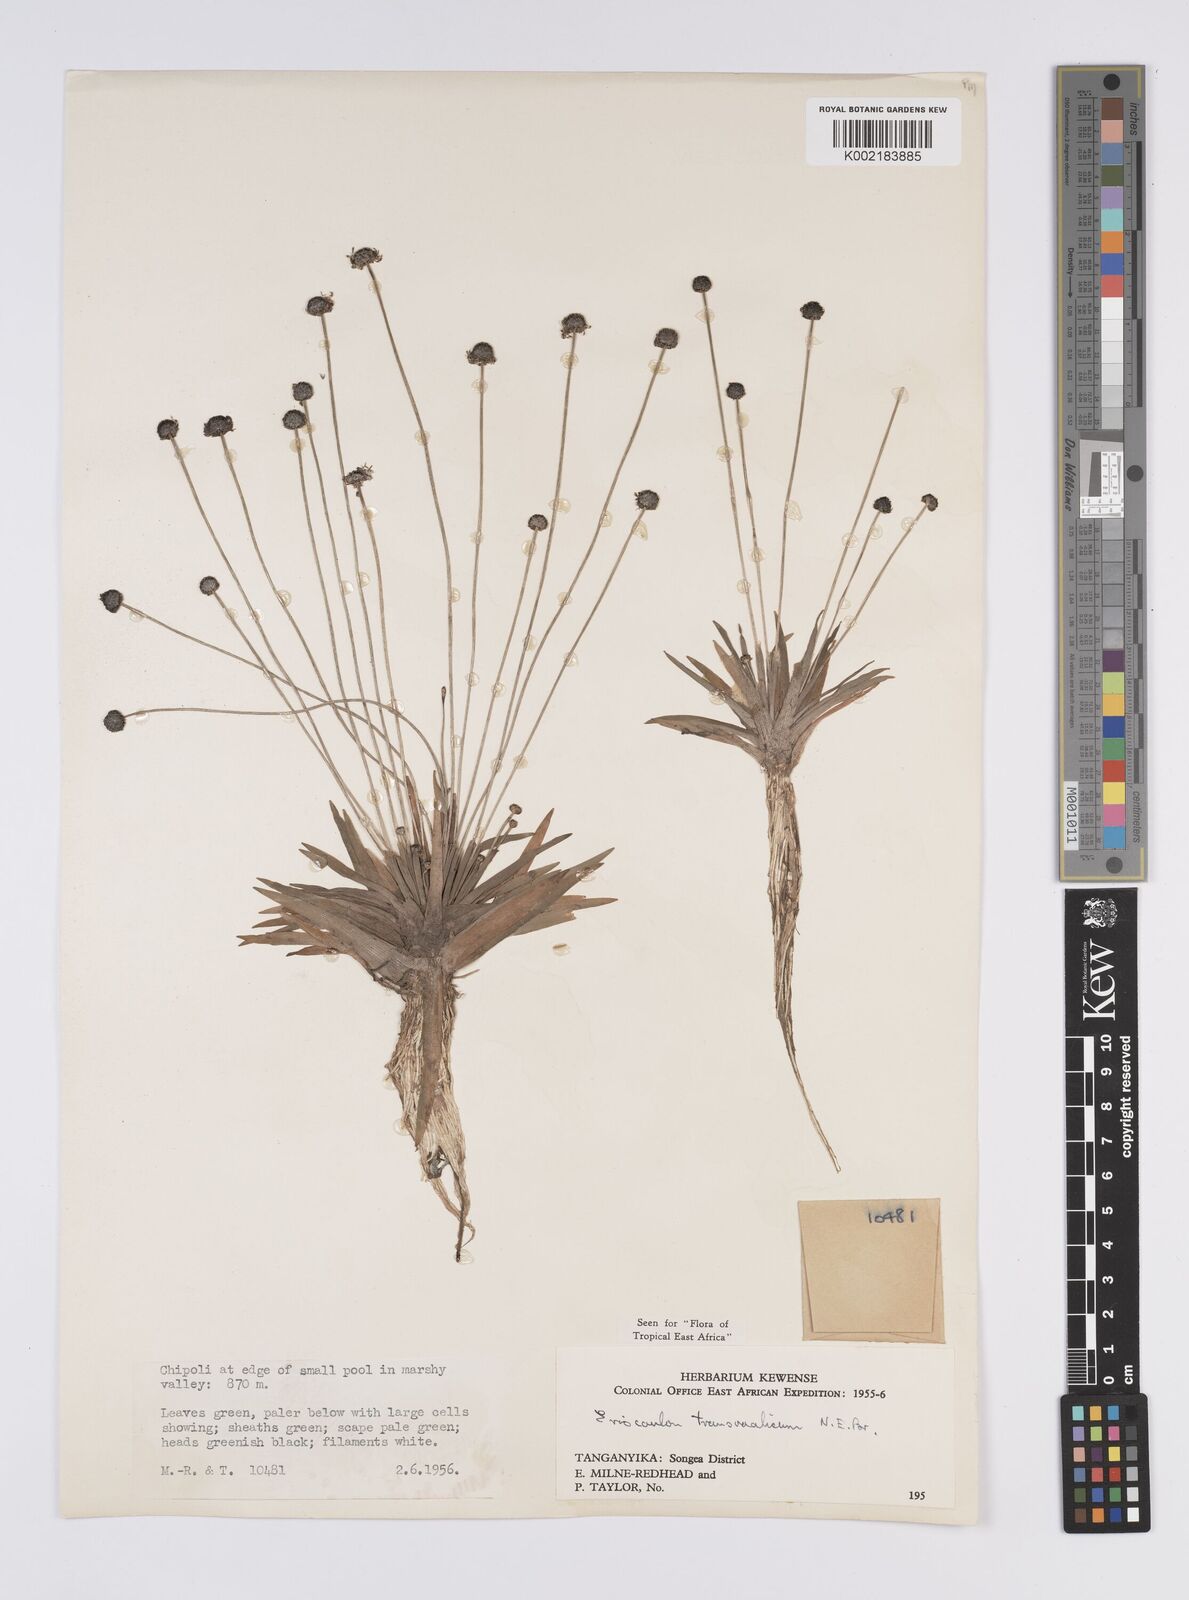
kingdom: Plantae
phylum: Tracheophyta
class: Liliopsida
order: Poales
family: Eriocaulaceae
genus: Eriocaulon
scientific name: Eriocaulon transvaalicum
